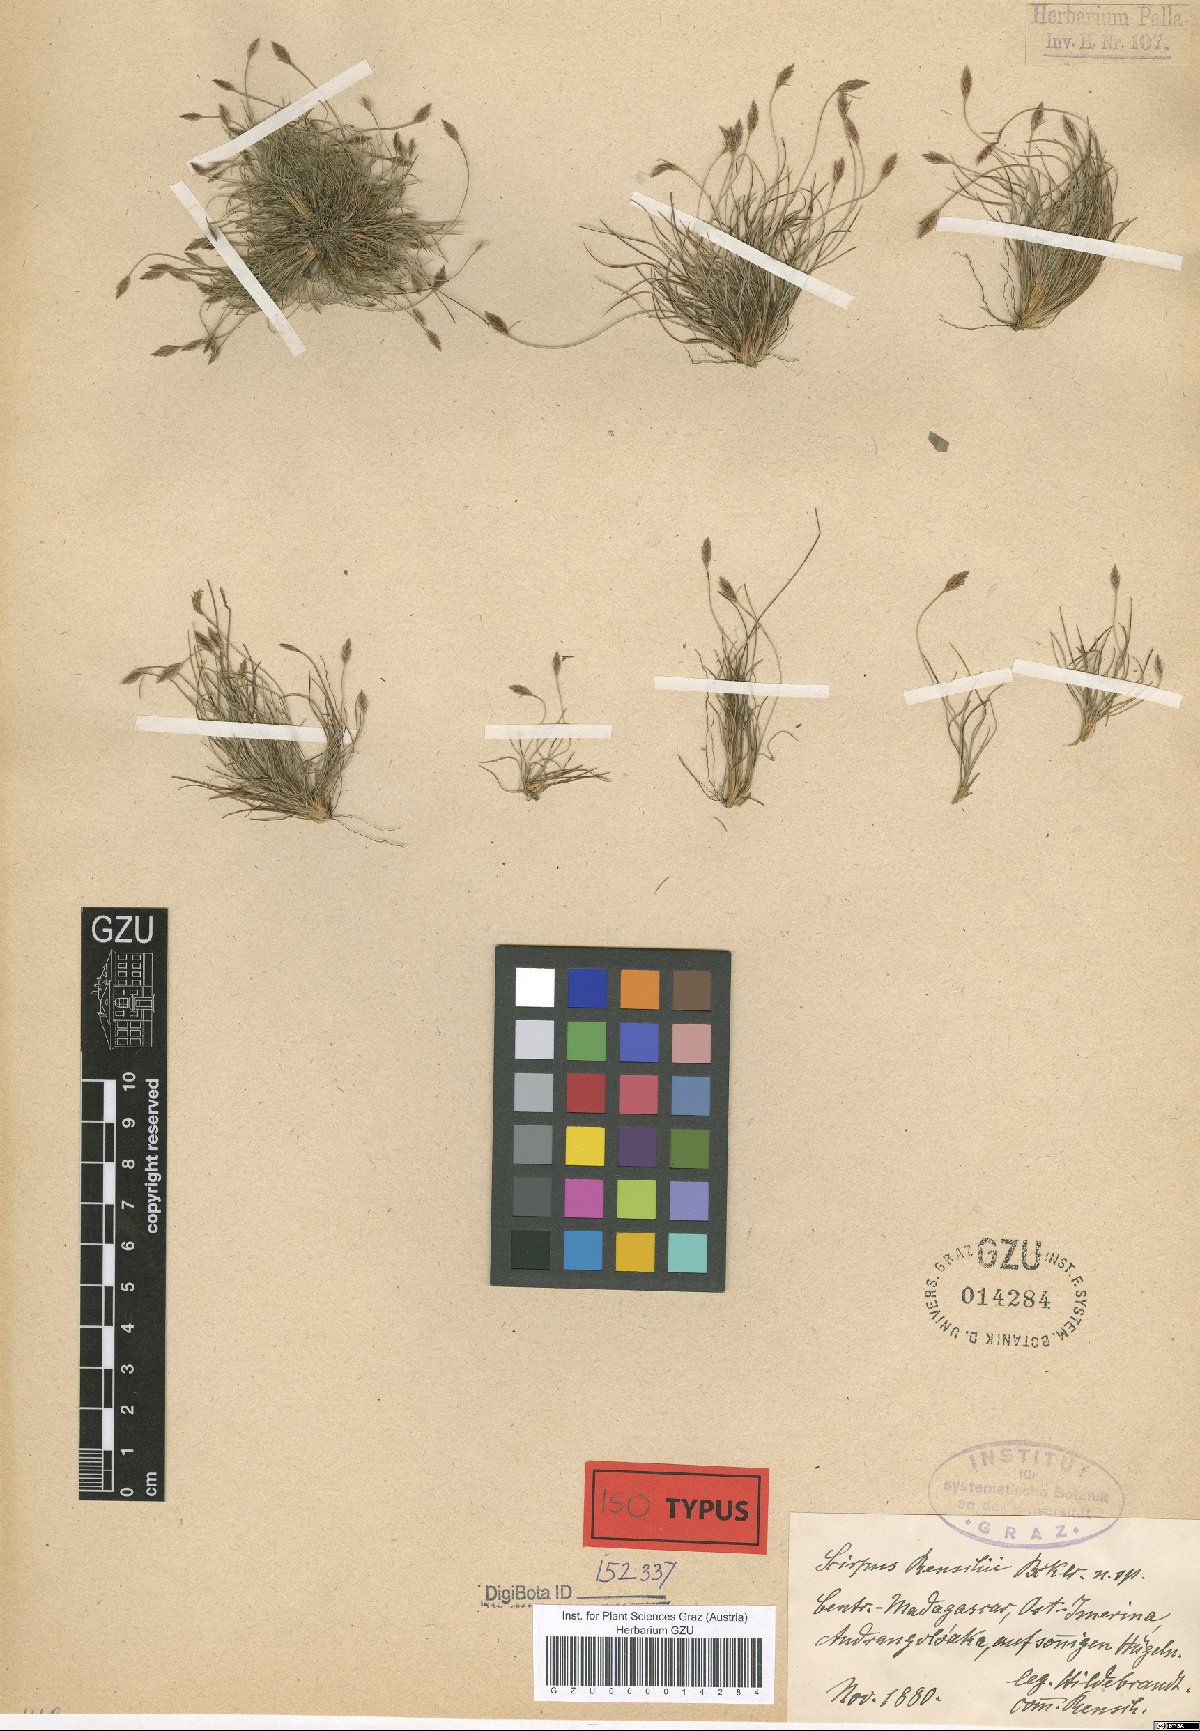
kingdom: Plantae
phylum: Tracheophyta
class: Liliopsida
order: Poales
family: Cyperaceae
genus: Bulbostylis
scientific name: Bulbostylis renschii
